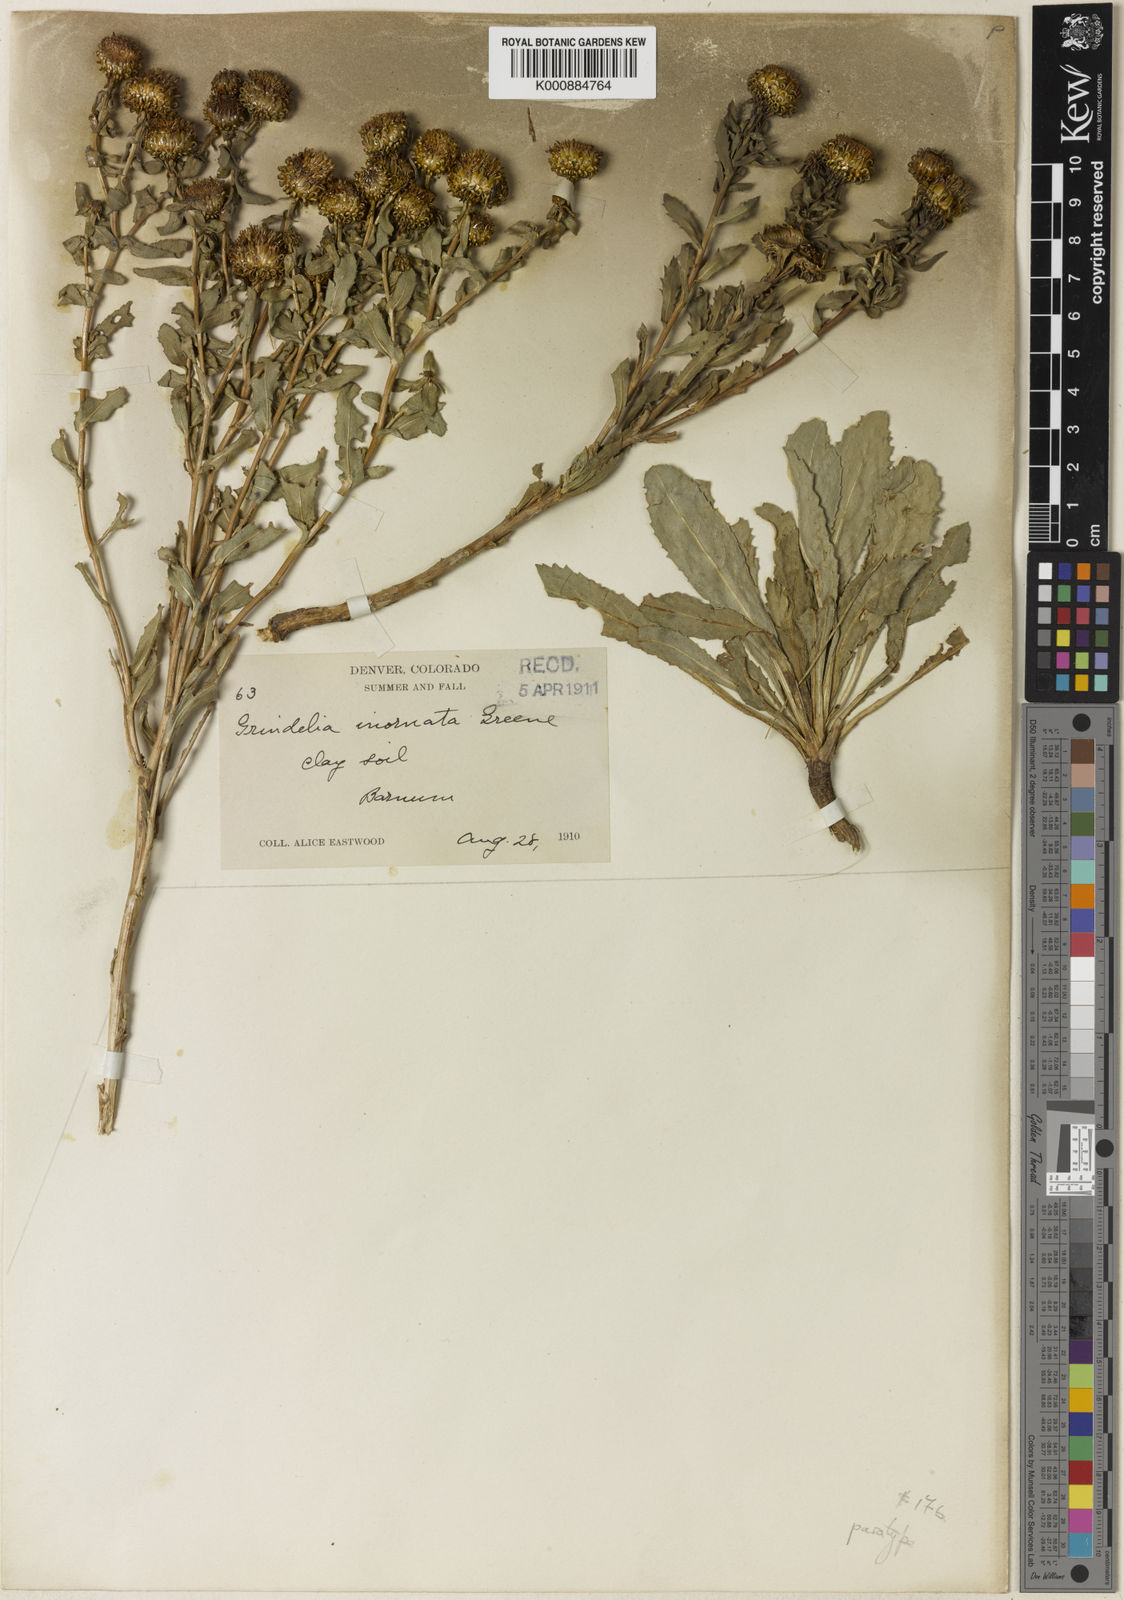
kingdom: Plantae
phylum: Tracheophyta
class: Magnoliopsida
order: Asterales
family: Asteraceae
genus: Grindelia
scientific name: Grindelia hirsutula
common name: Hairy gumweed
